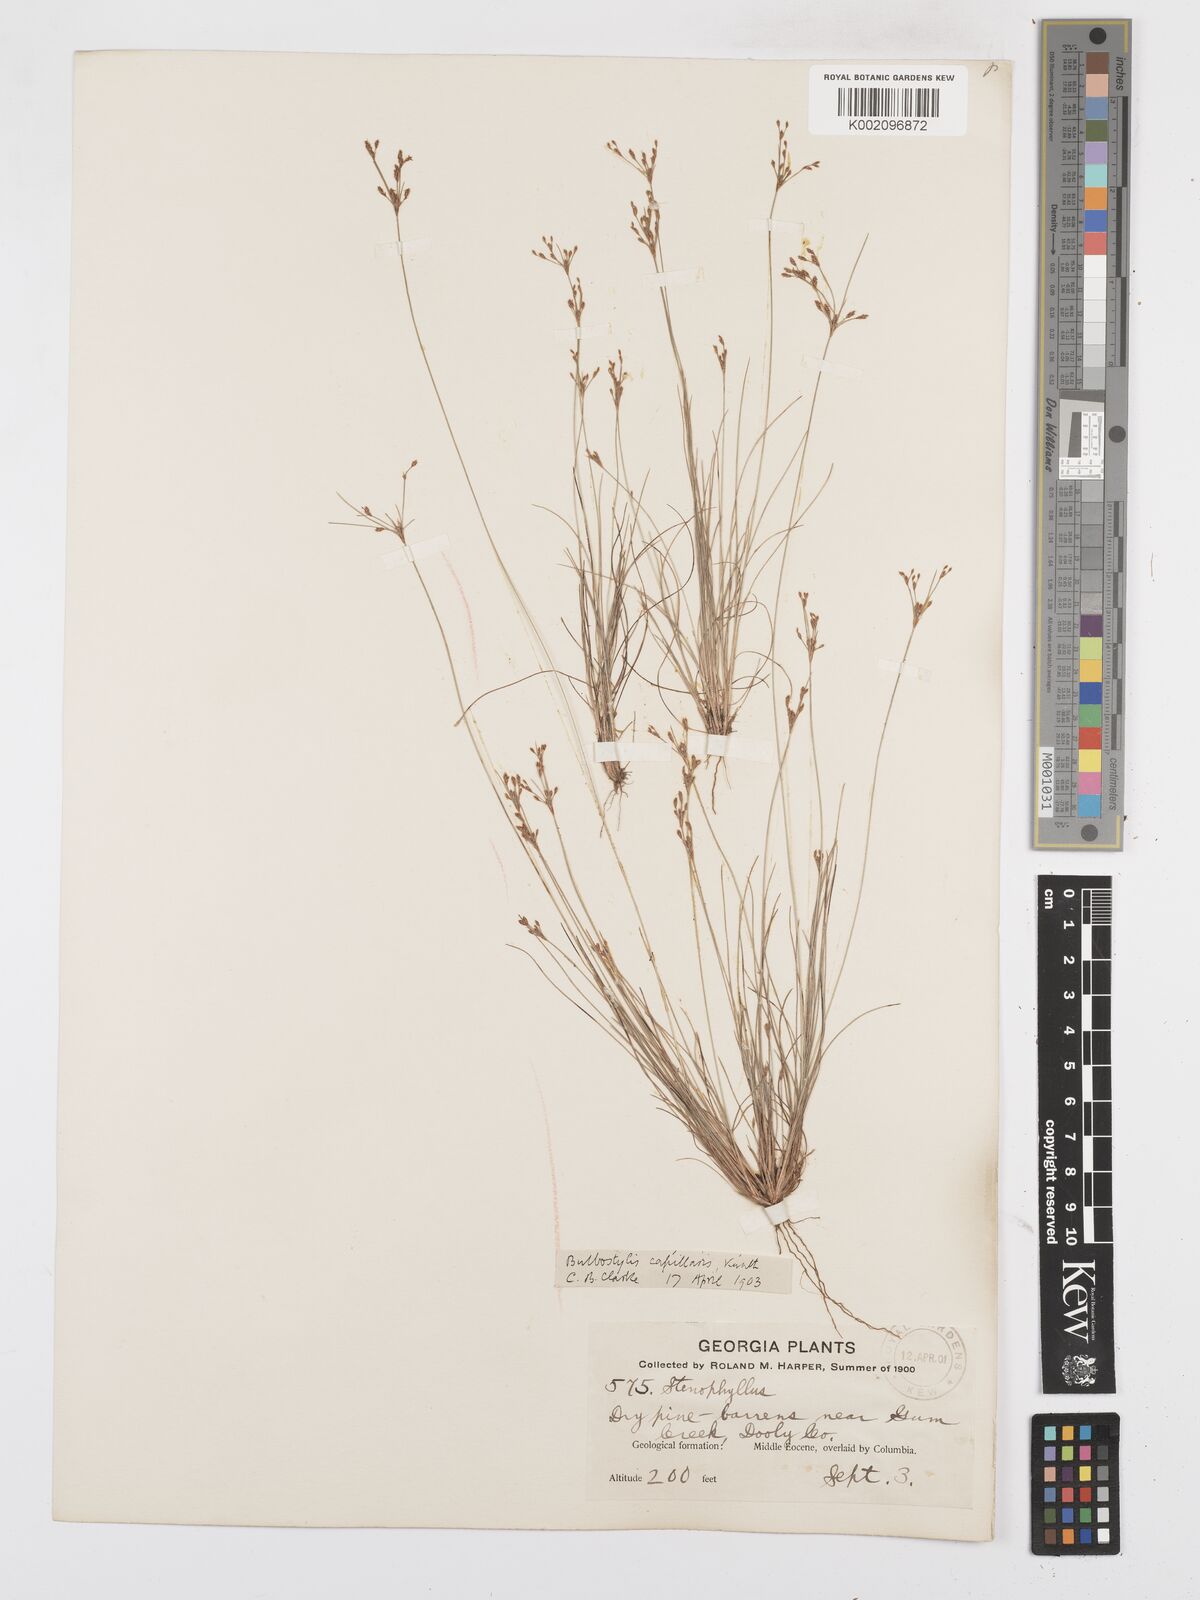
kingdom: Plantae
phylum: Tracheophyta
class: Liliopsida
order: Poales
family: Cyperaceae
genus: Bulbostylis
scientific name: Bulbostylis capillaris
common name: Densetuft hairsedge
